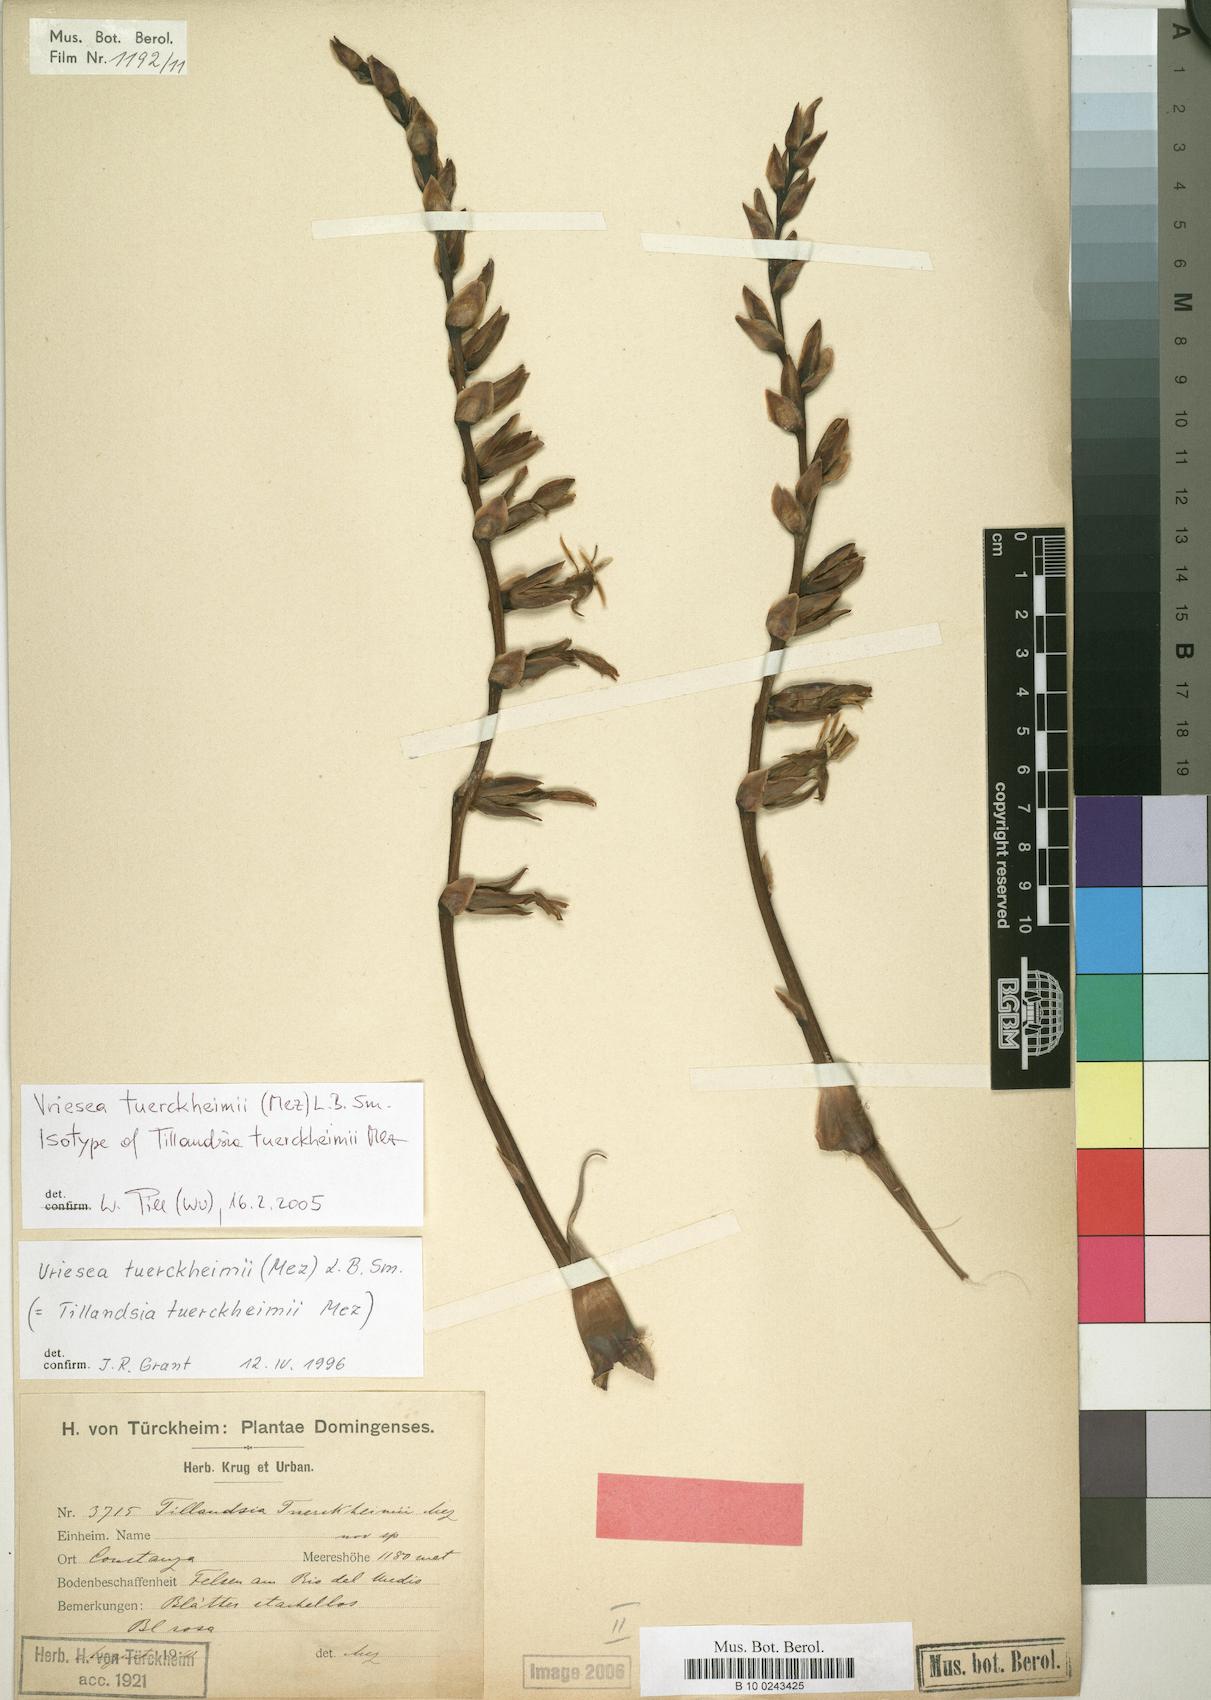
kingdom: Plantae
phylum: Tracheophyta
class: Liliopsida
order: Poales
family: Bromeliaceae
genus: Zizkaea
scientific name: Zizkaea tuerckheimii
